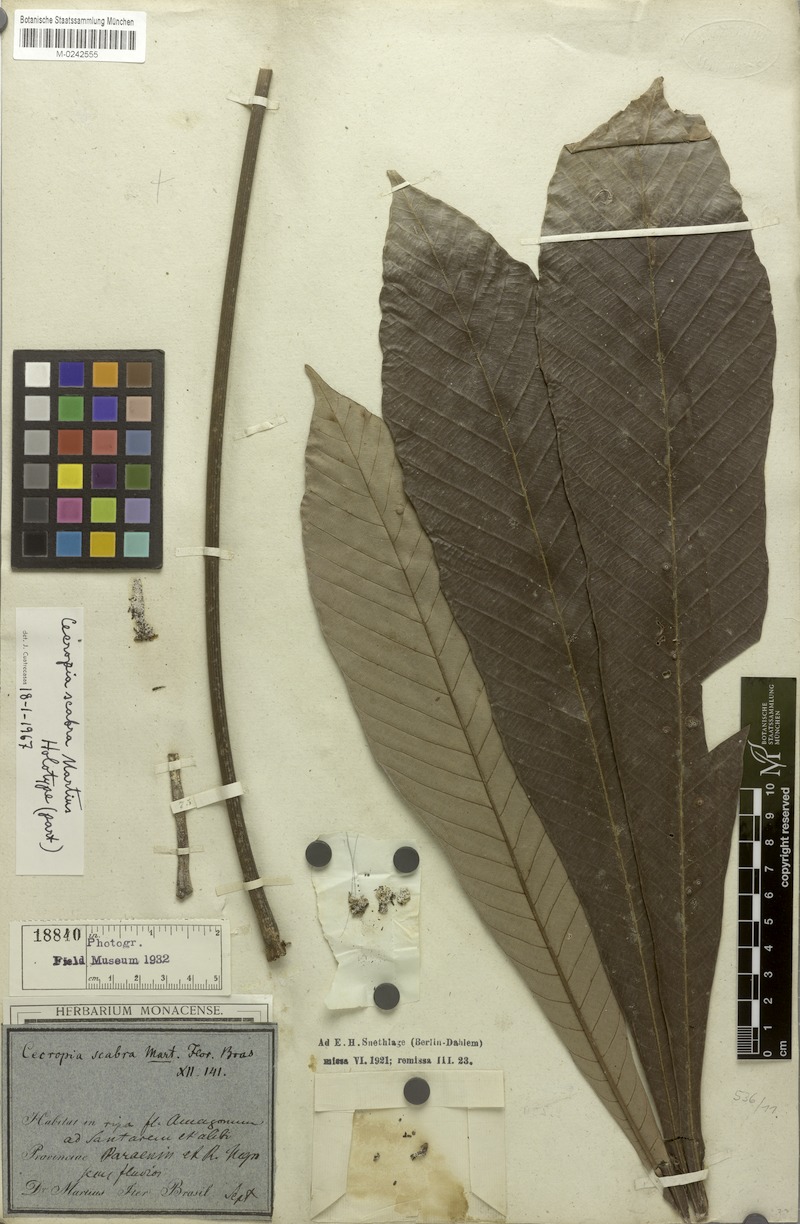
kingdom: Plantae
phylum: Tracheophyta
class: Magnoliopsida
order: Rosales
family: Urticaceae
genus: Pourouma
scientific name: Pourouma guianensis
